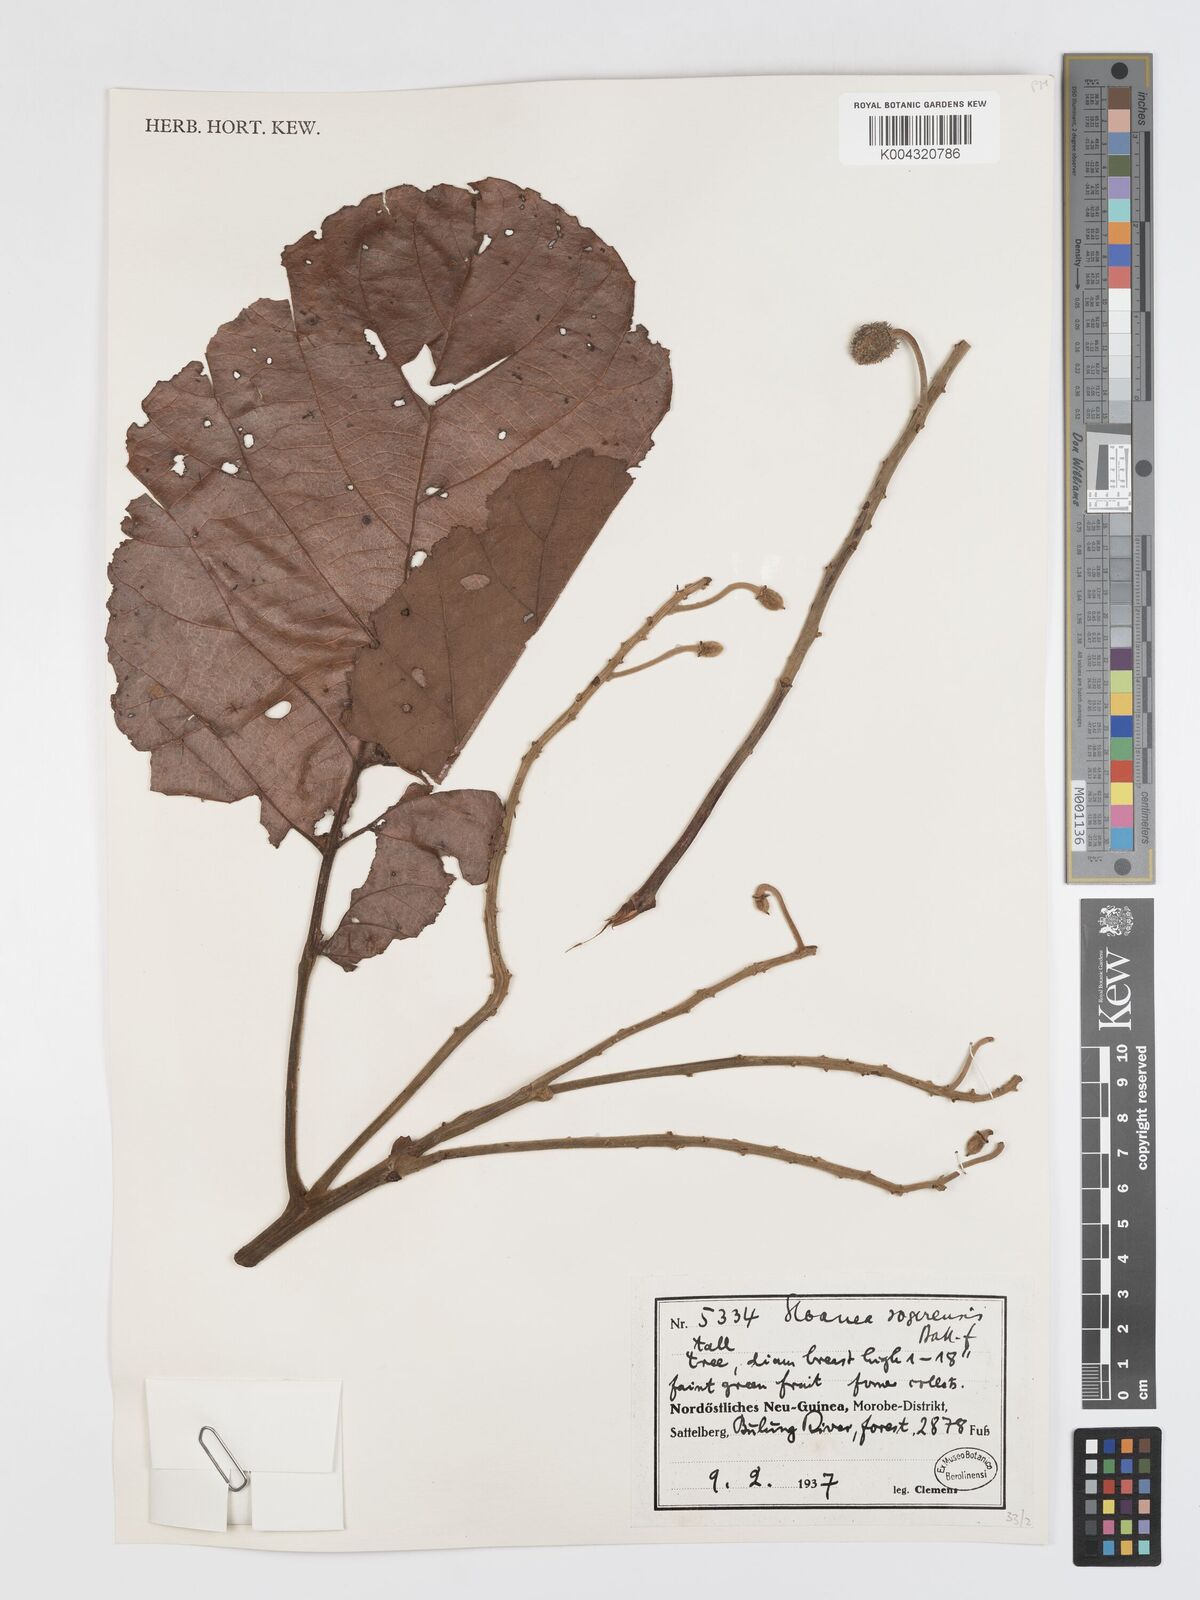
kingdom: Plantae
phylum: Tracheophyta
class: Magnoliopsida
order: Oxalidales
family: Elaeocarpaceae
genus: Sloanea
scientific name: Sloanea sogerensis
